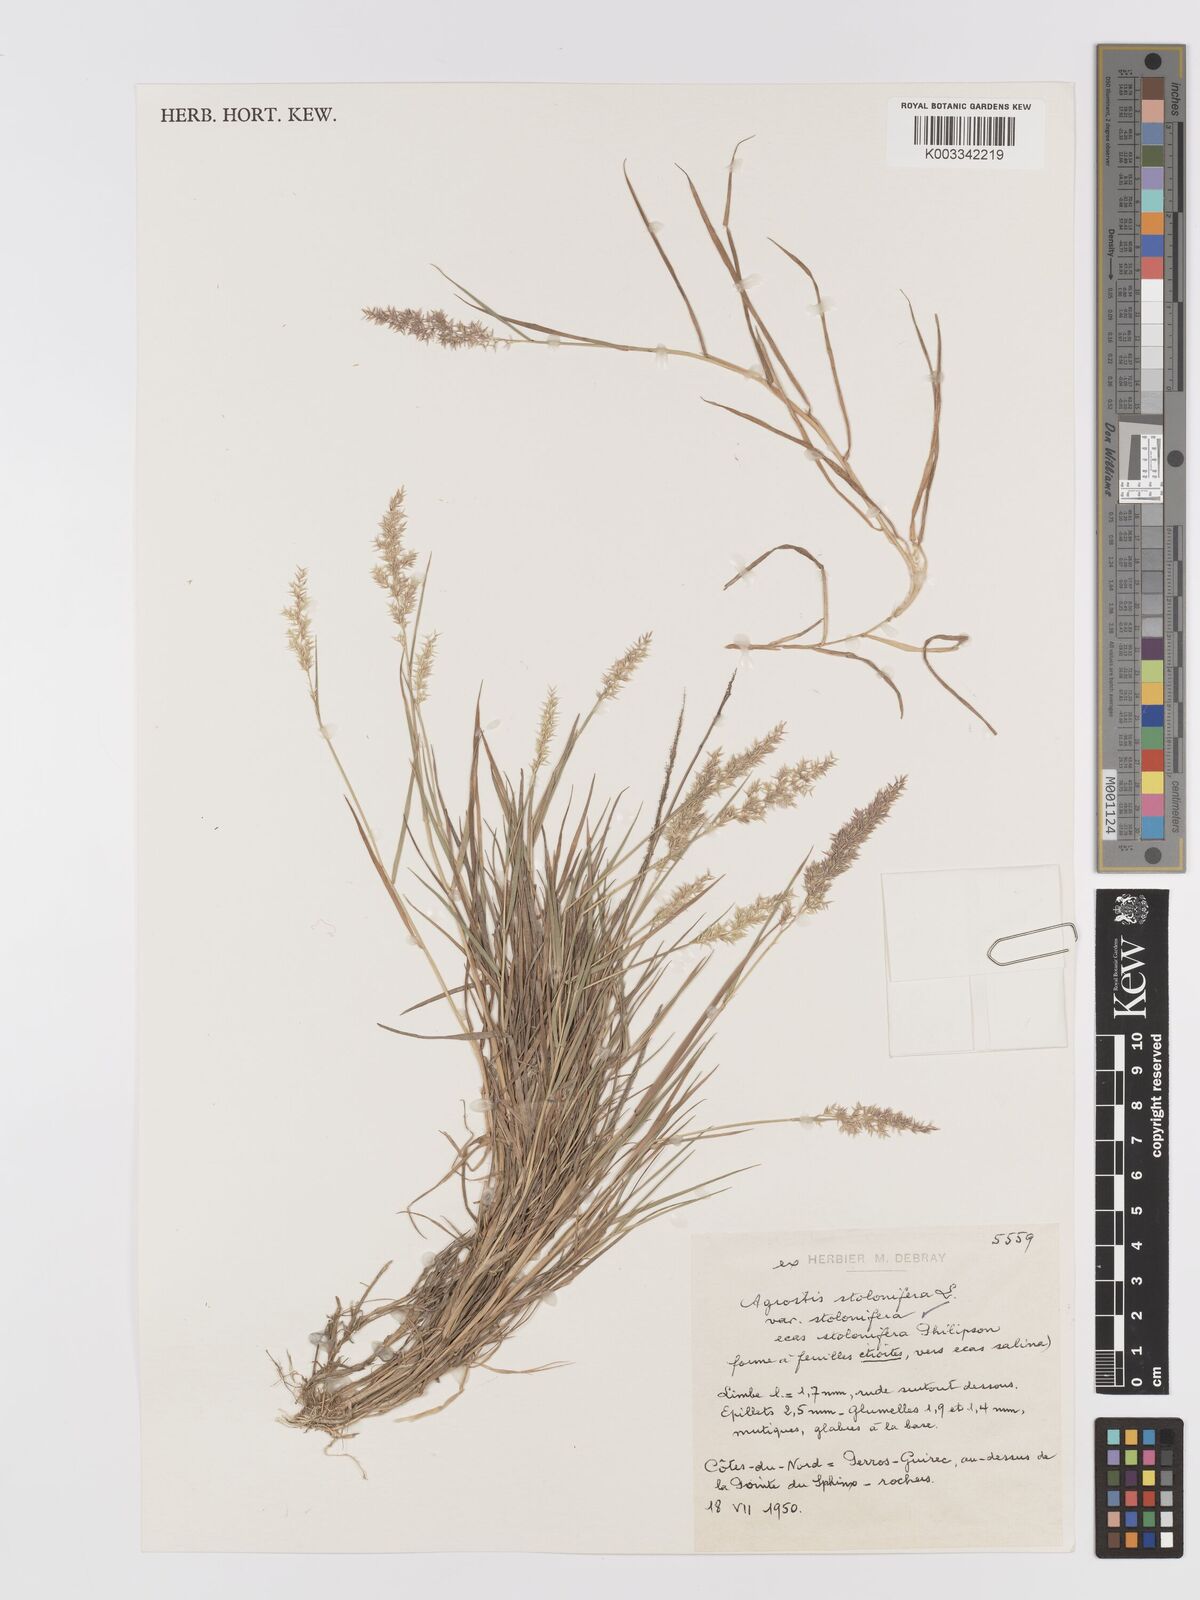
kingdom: Plantae
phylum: Tracheophyta
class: Liliopsida
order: Poales
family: Poaceae
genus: Agrostis
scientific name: Agrostis stolonifera
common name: Creeping bentgrass
